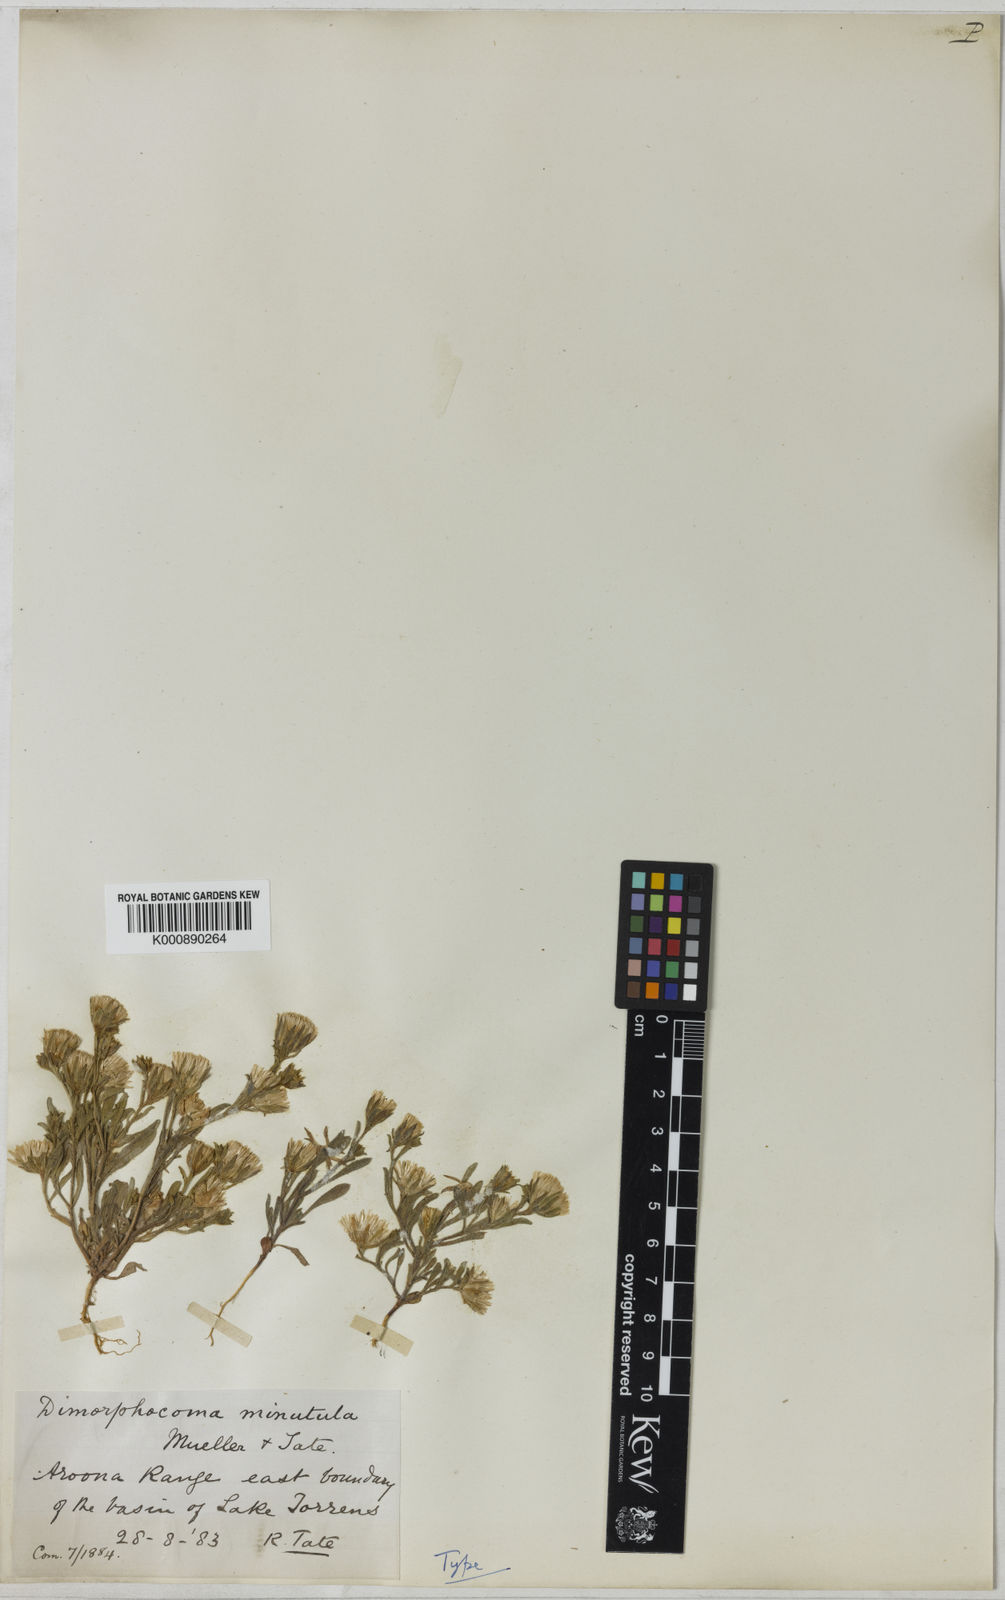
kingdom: Plantae
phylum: Tracheophyta
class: Magnoliopsida
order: Asterales
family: Asteraceae
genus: Dimorphocoma
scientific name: Dimorphocoma minutula
